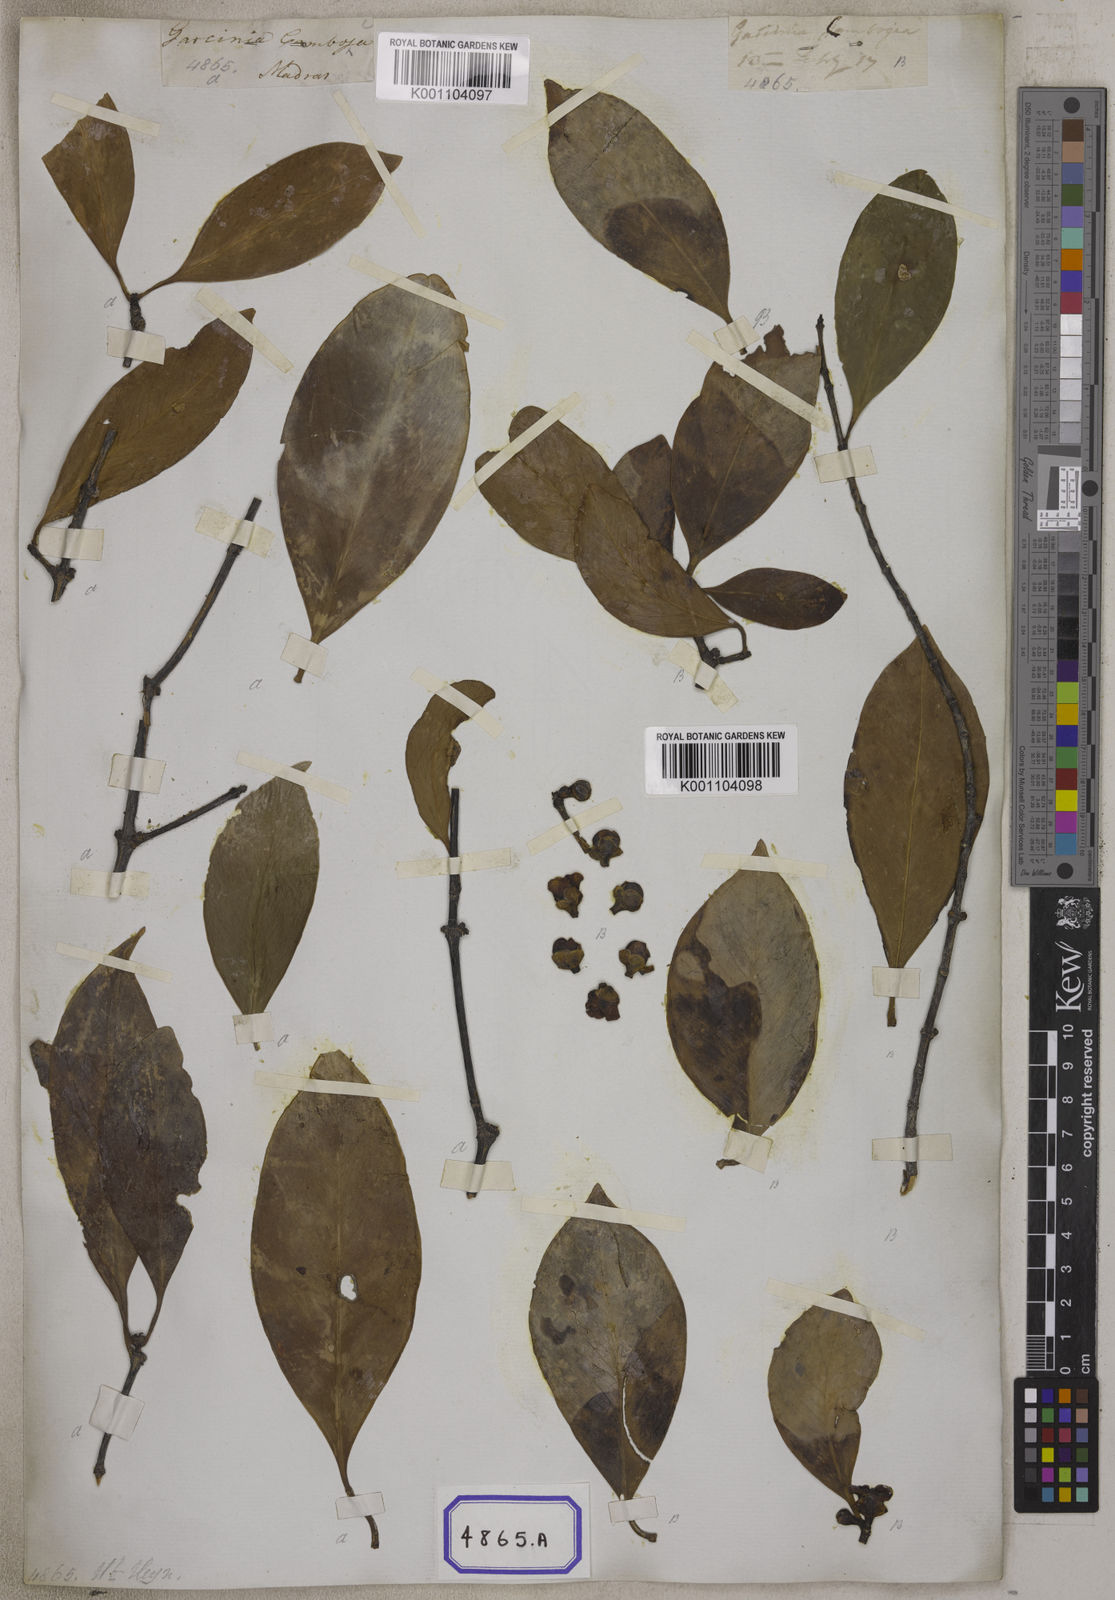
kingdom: Plantae
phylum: Tracheophyta
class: Magnoliopsida
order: Malpighiales
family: Clusiaceae
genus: Garcinia
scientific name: Garcinia gummi-gutta
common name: Malabar tamarind
